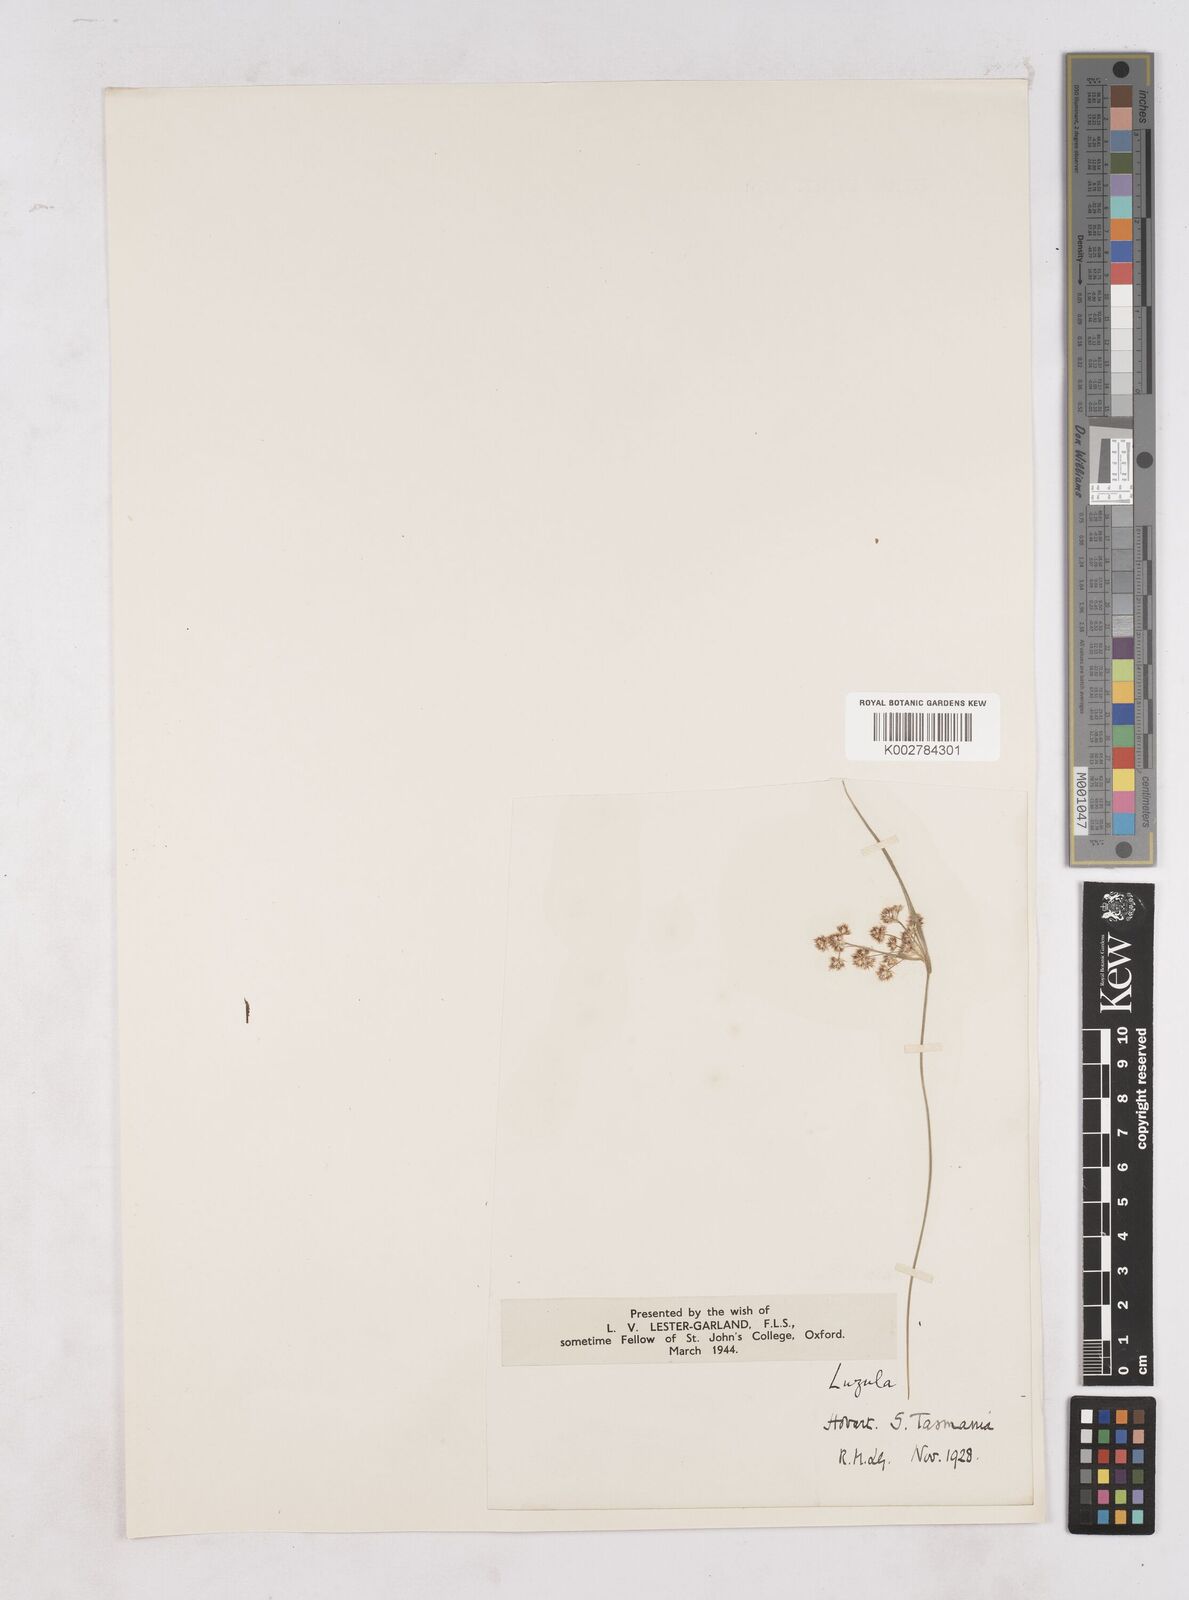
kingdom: Plantae
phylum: Tracheophyta
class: Liliopsida
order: Poales
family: Juncaceae
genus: Luzula
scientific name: Luzula
